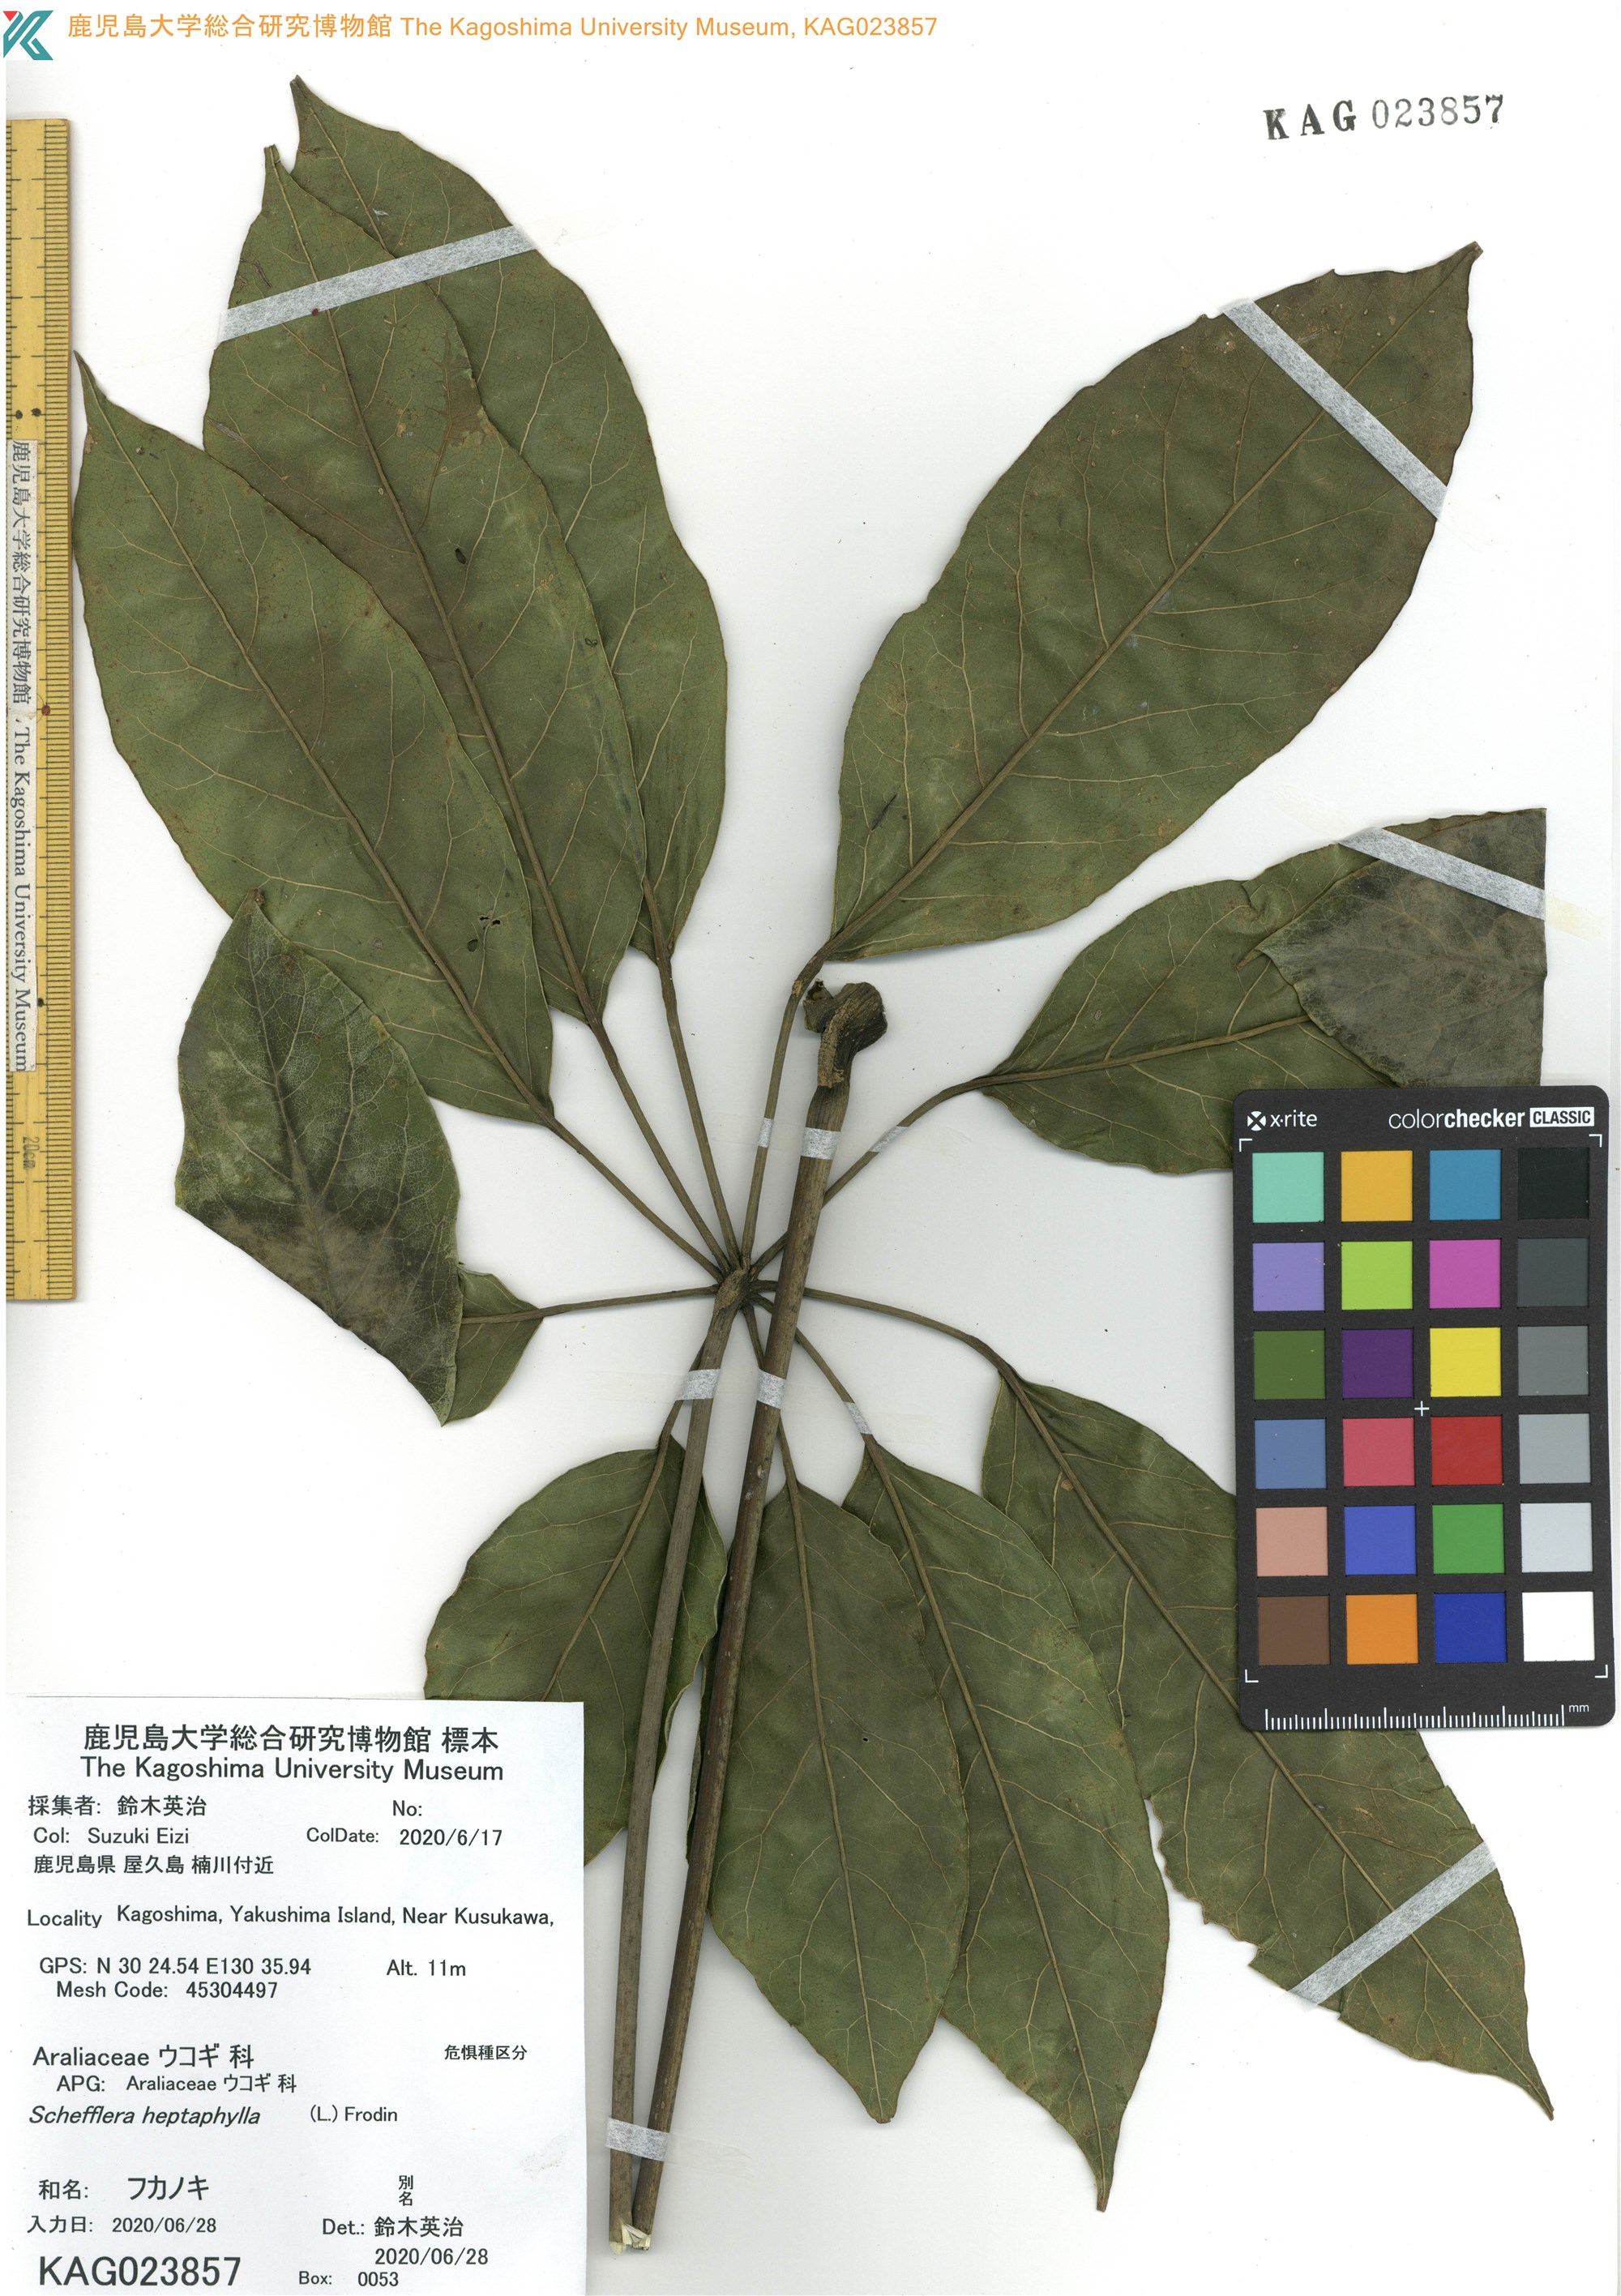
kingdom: Plantae
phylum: Tracheophyta
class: Magnoliopsida
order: Apiales
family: Araliaceae
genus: Heptapleurum
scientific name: Heptapleurum heptaphyllum
